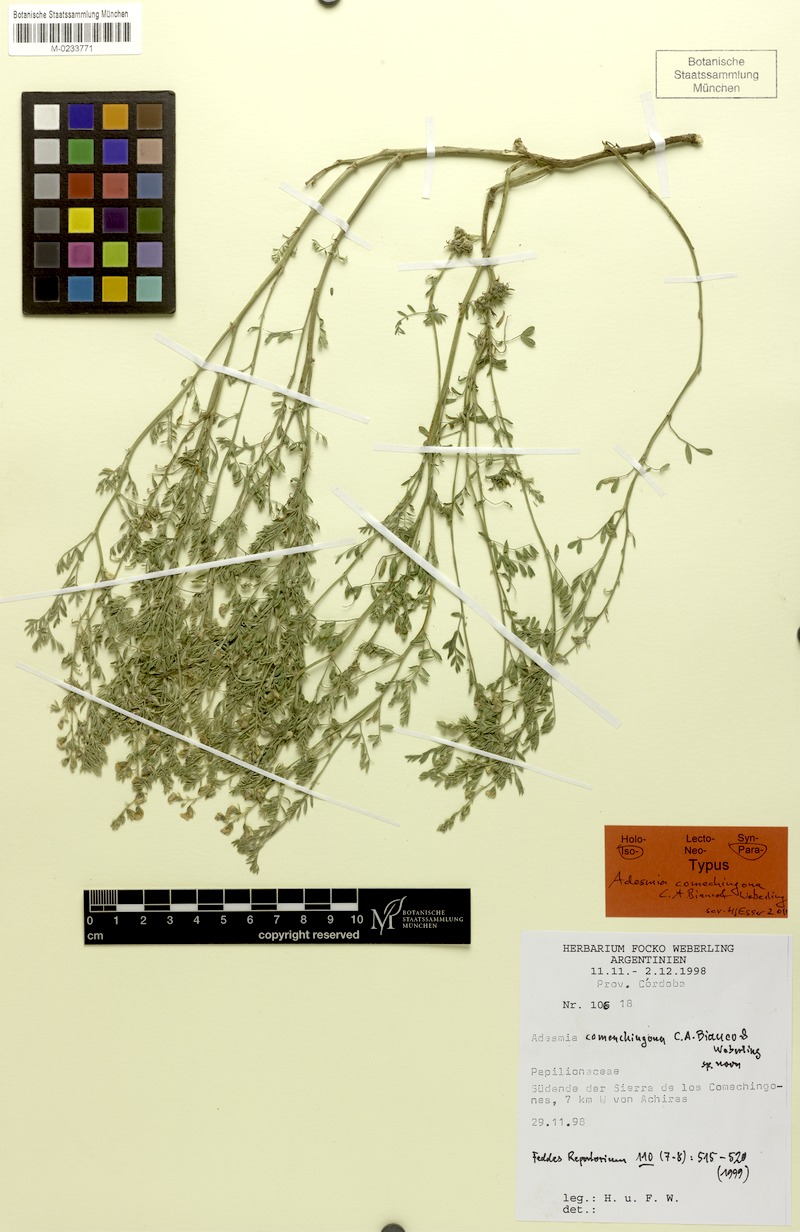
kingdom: Plantae
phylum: Tracheophyta
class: Magnoliopsida
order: Fabales
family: Fabaceae
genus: Adesmia
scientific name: Adesmia cordobensis
